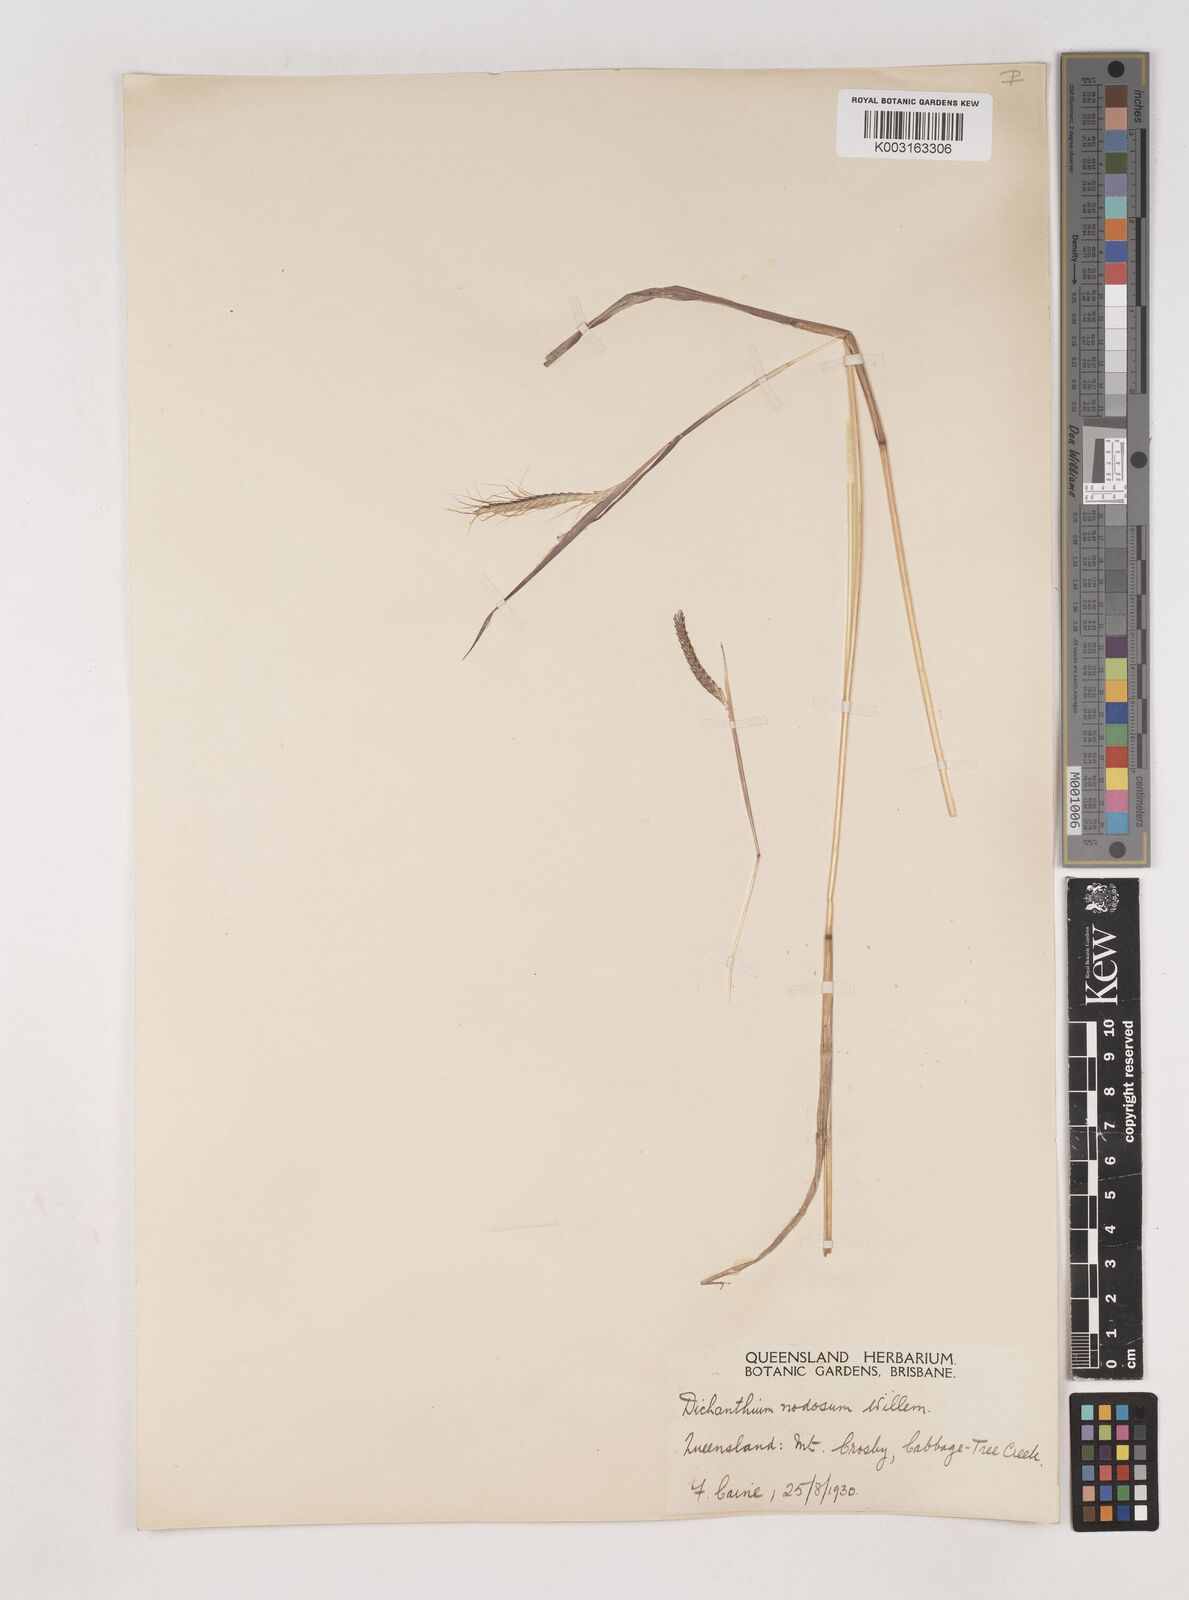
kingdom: Plantae
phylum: Tracheophyta
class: Liliopsida
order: Poales
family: Poaceae
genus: Dichanthium
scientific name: Dichanthium aristatum
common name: Angleton bluestem
